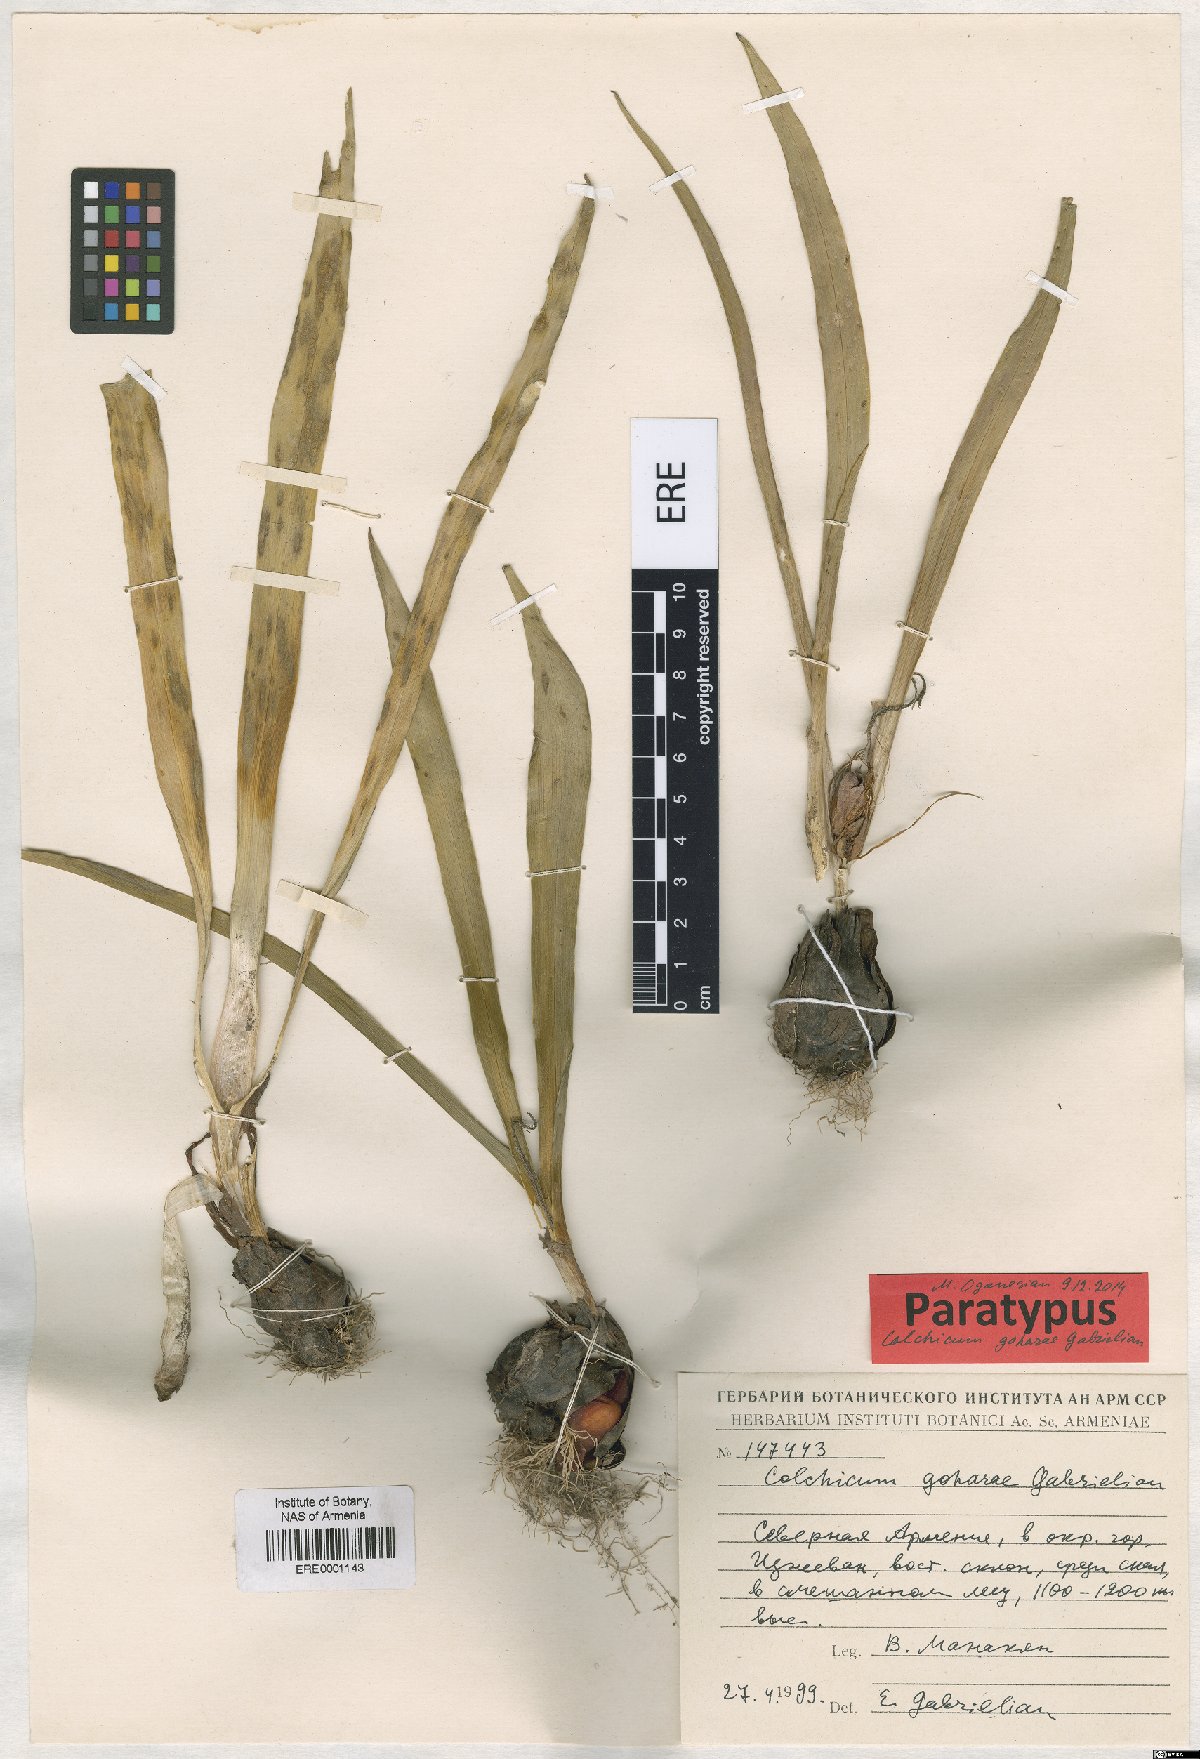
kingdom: Plantae
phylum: Tracheophyta
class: Liliopsida
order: Liliales
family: Colchicaceae
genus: Colchicum
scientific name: Colchicum szovitsii
